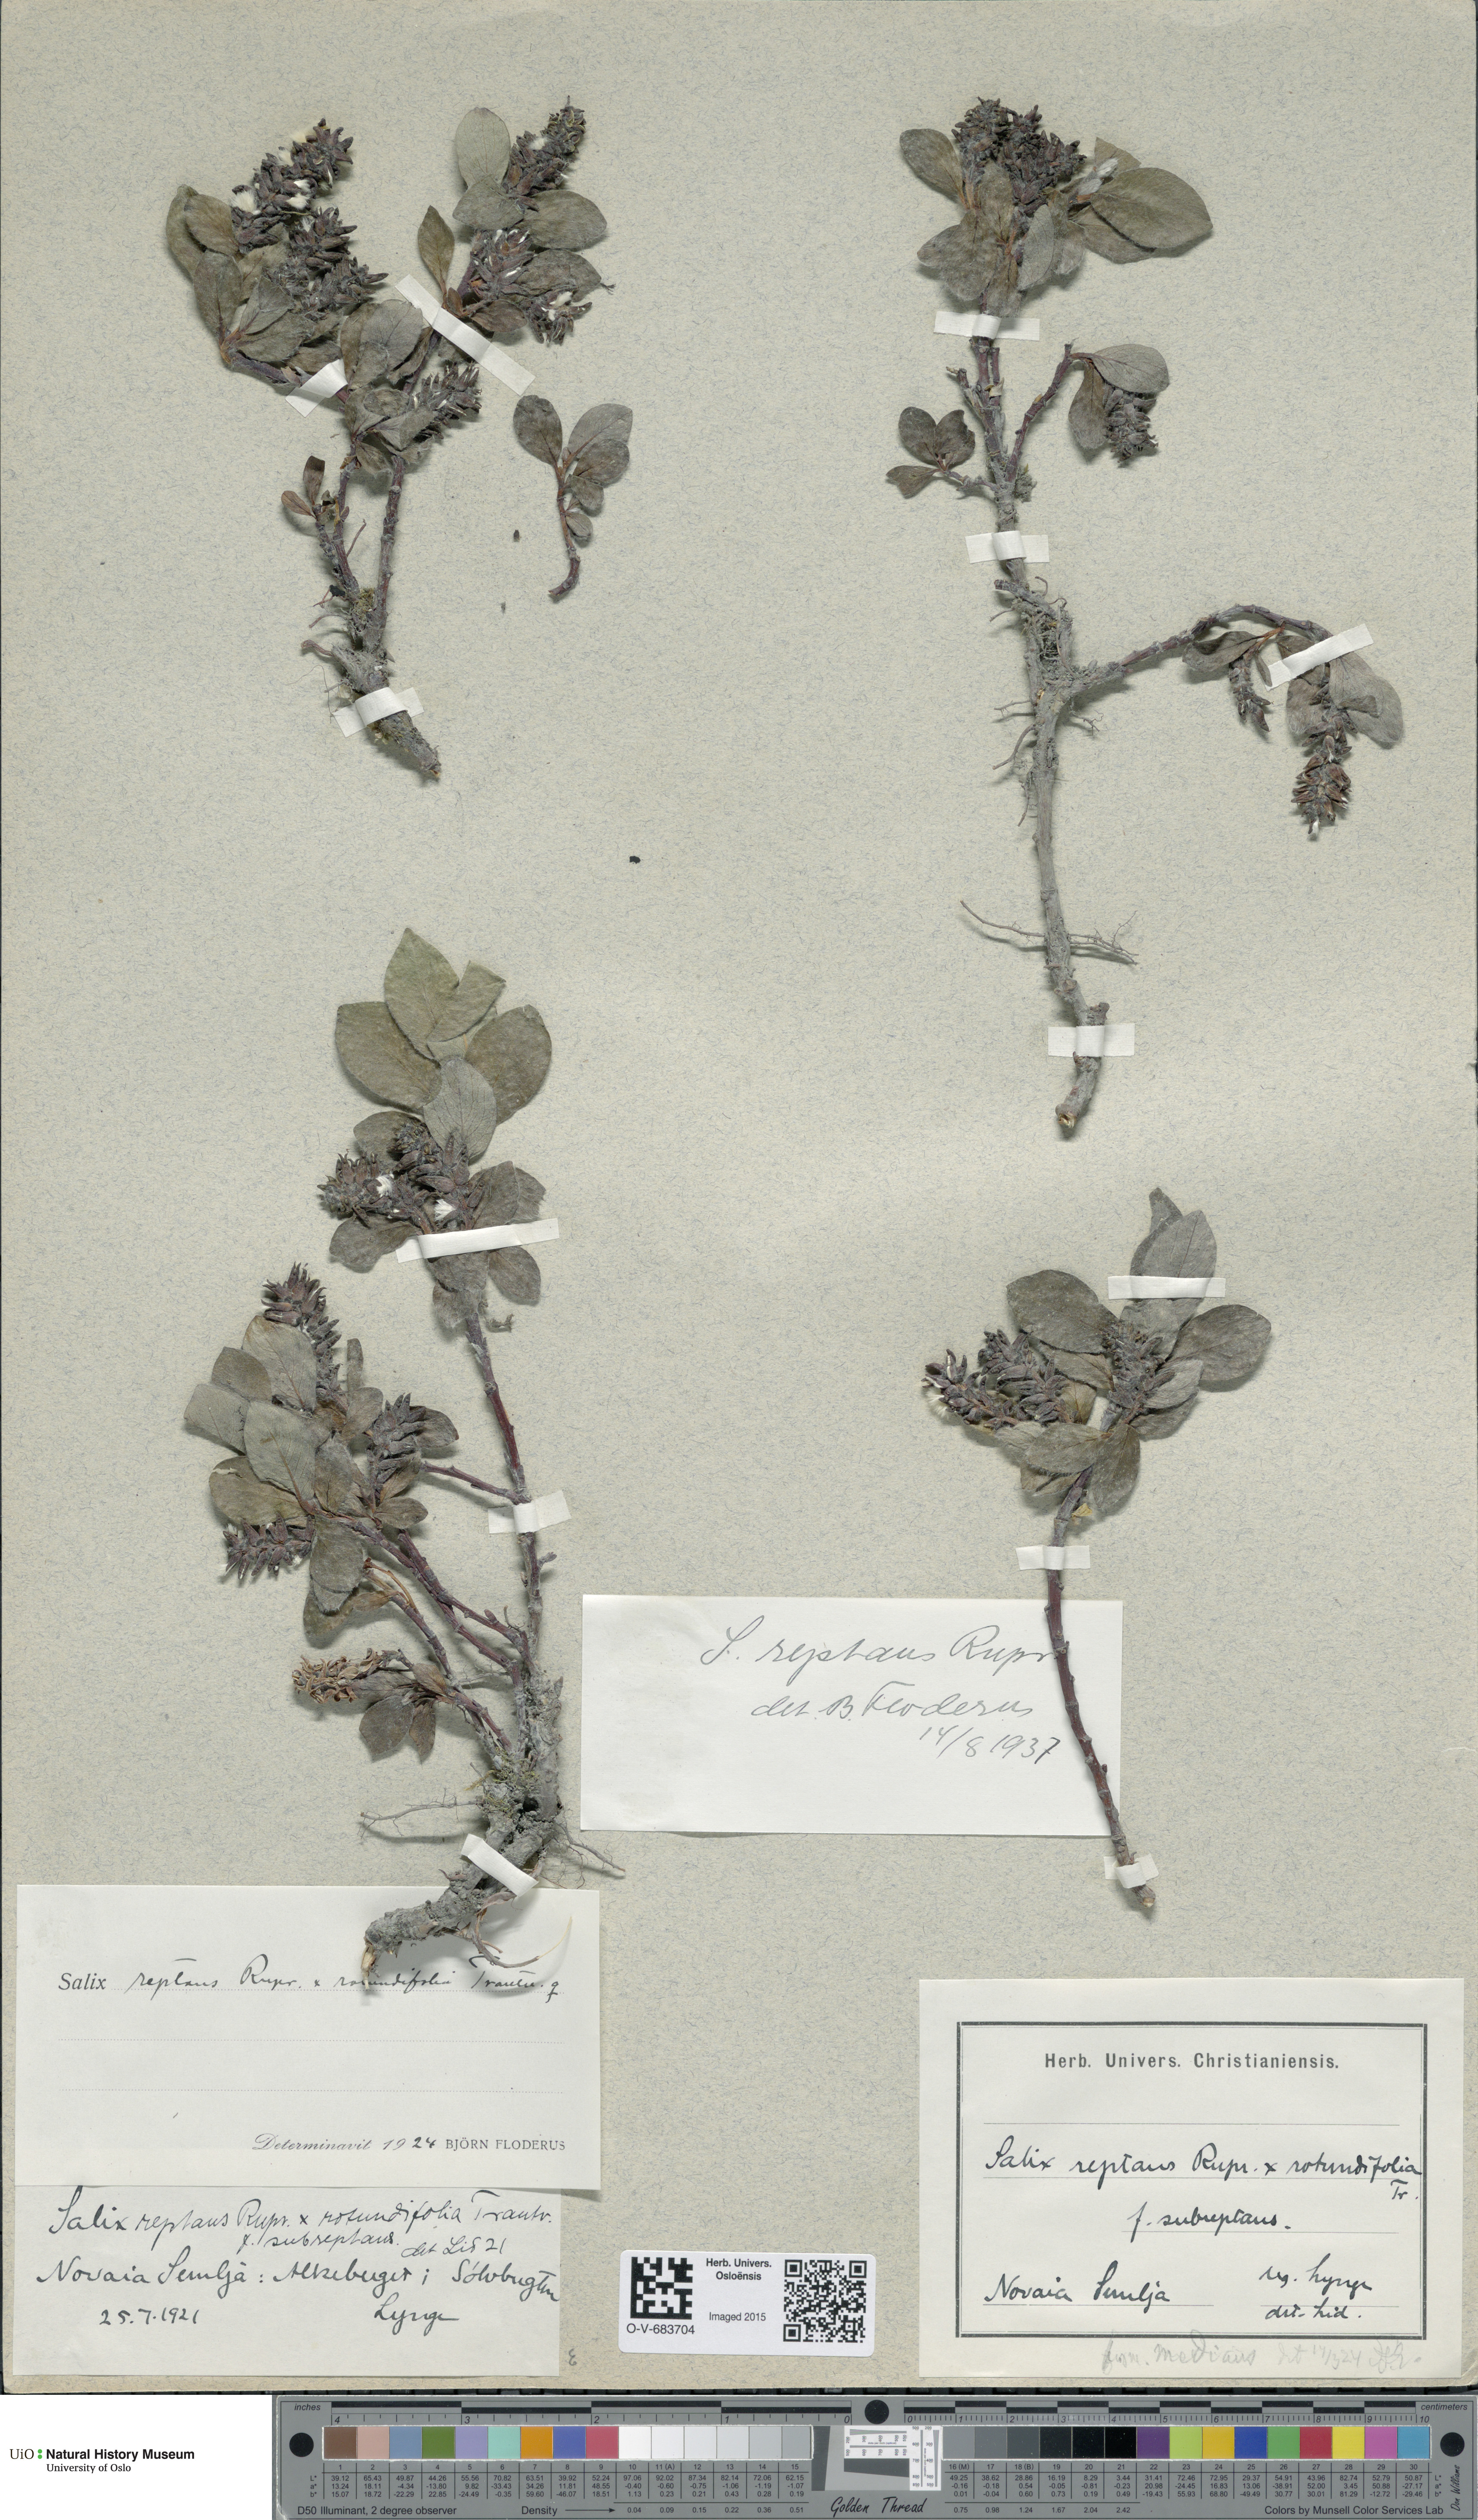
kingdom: Plantae
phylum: Tracheophyta
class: Magnoliopsida
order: Malpighiales
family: Salicaceae
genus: Salix
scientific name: Salix reptans
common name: Arctic creeping willow
